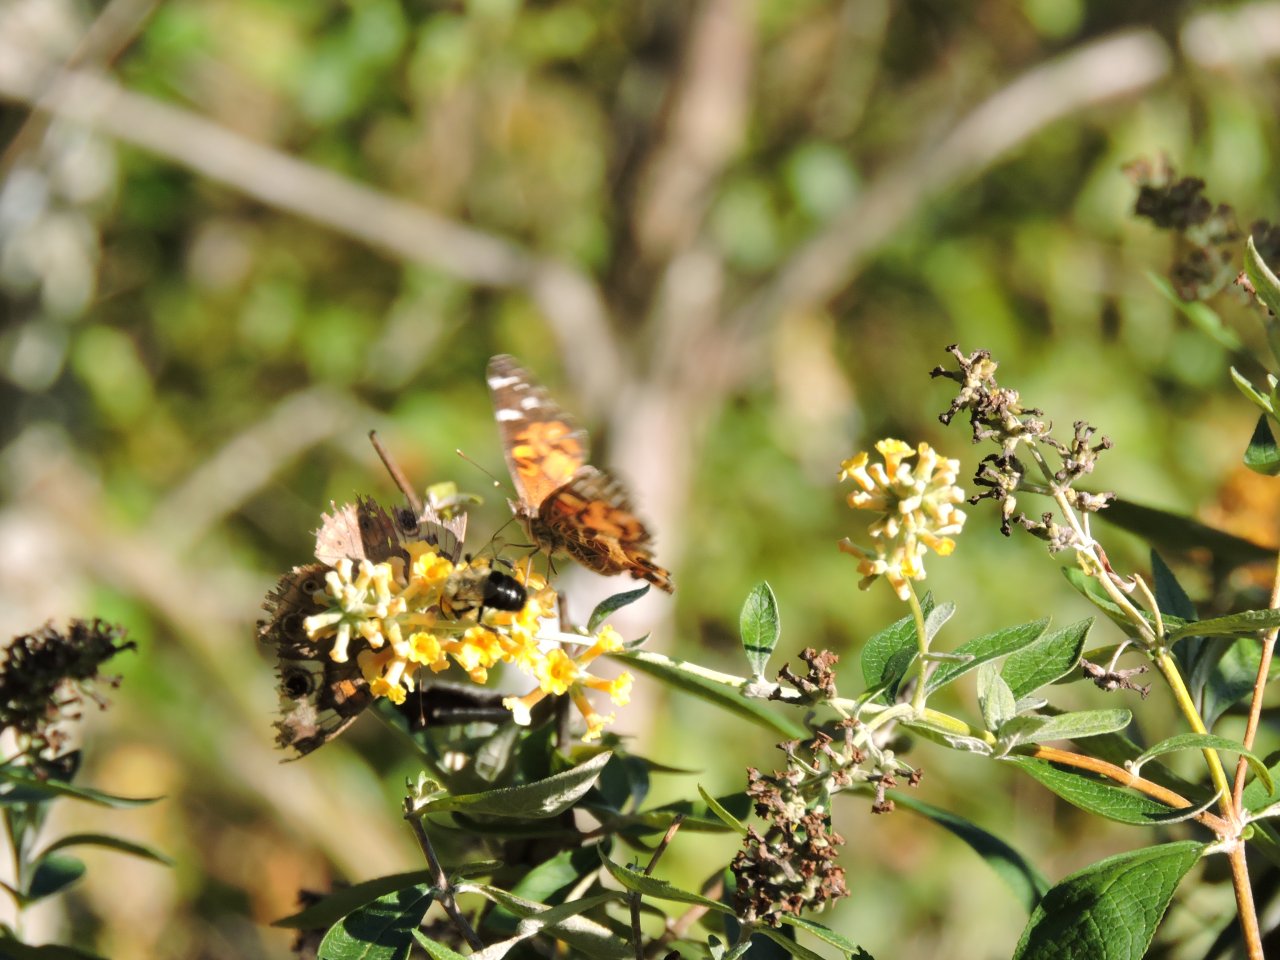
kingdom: Animalia
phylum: Arthropoda
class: Insecta
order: Lepidoptera
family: Nymphalidae
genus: Vanessa
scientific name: Vanessa virginiensis
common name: American Lady
